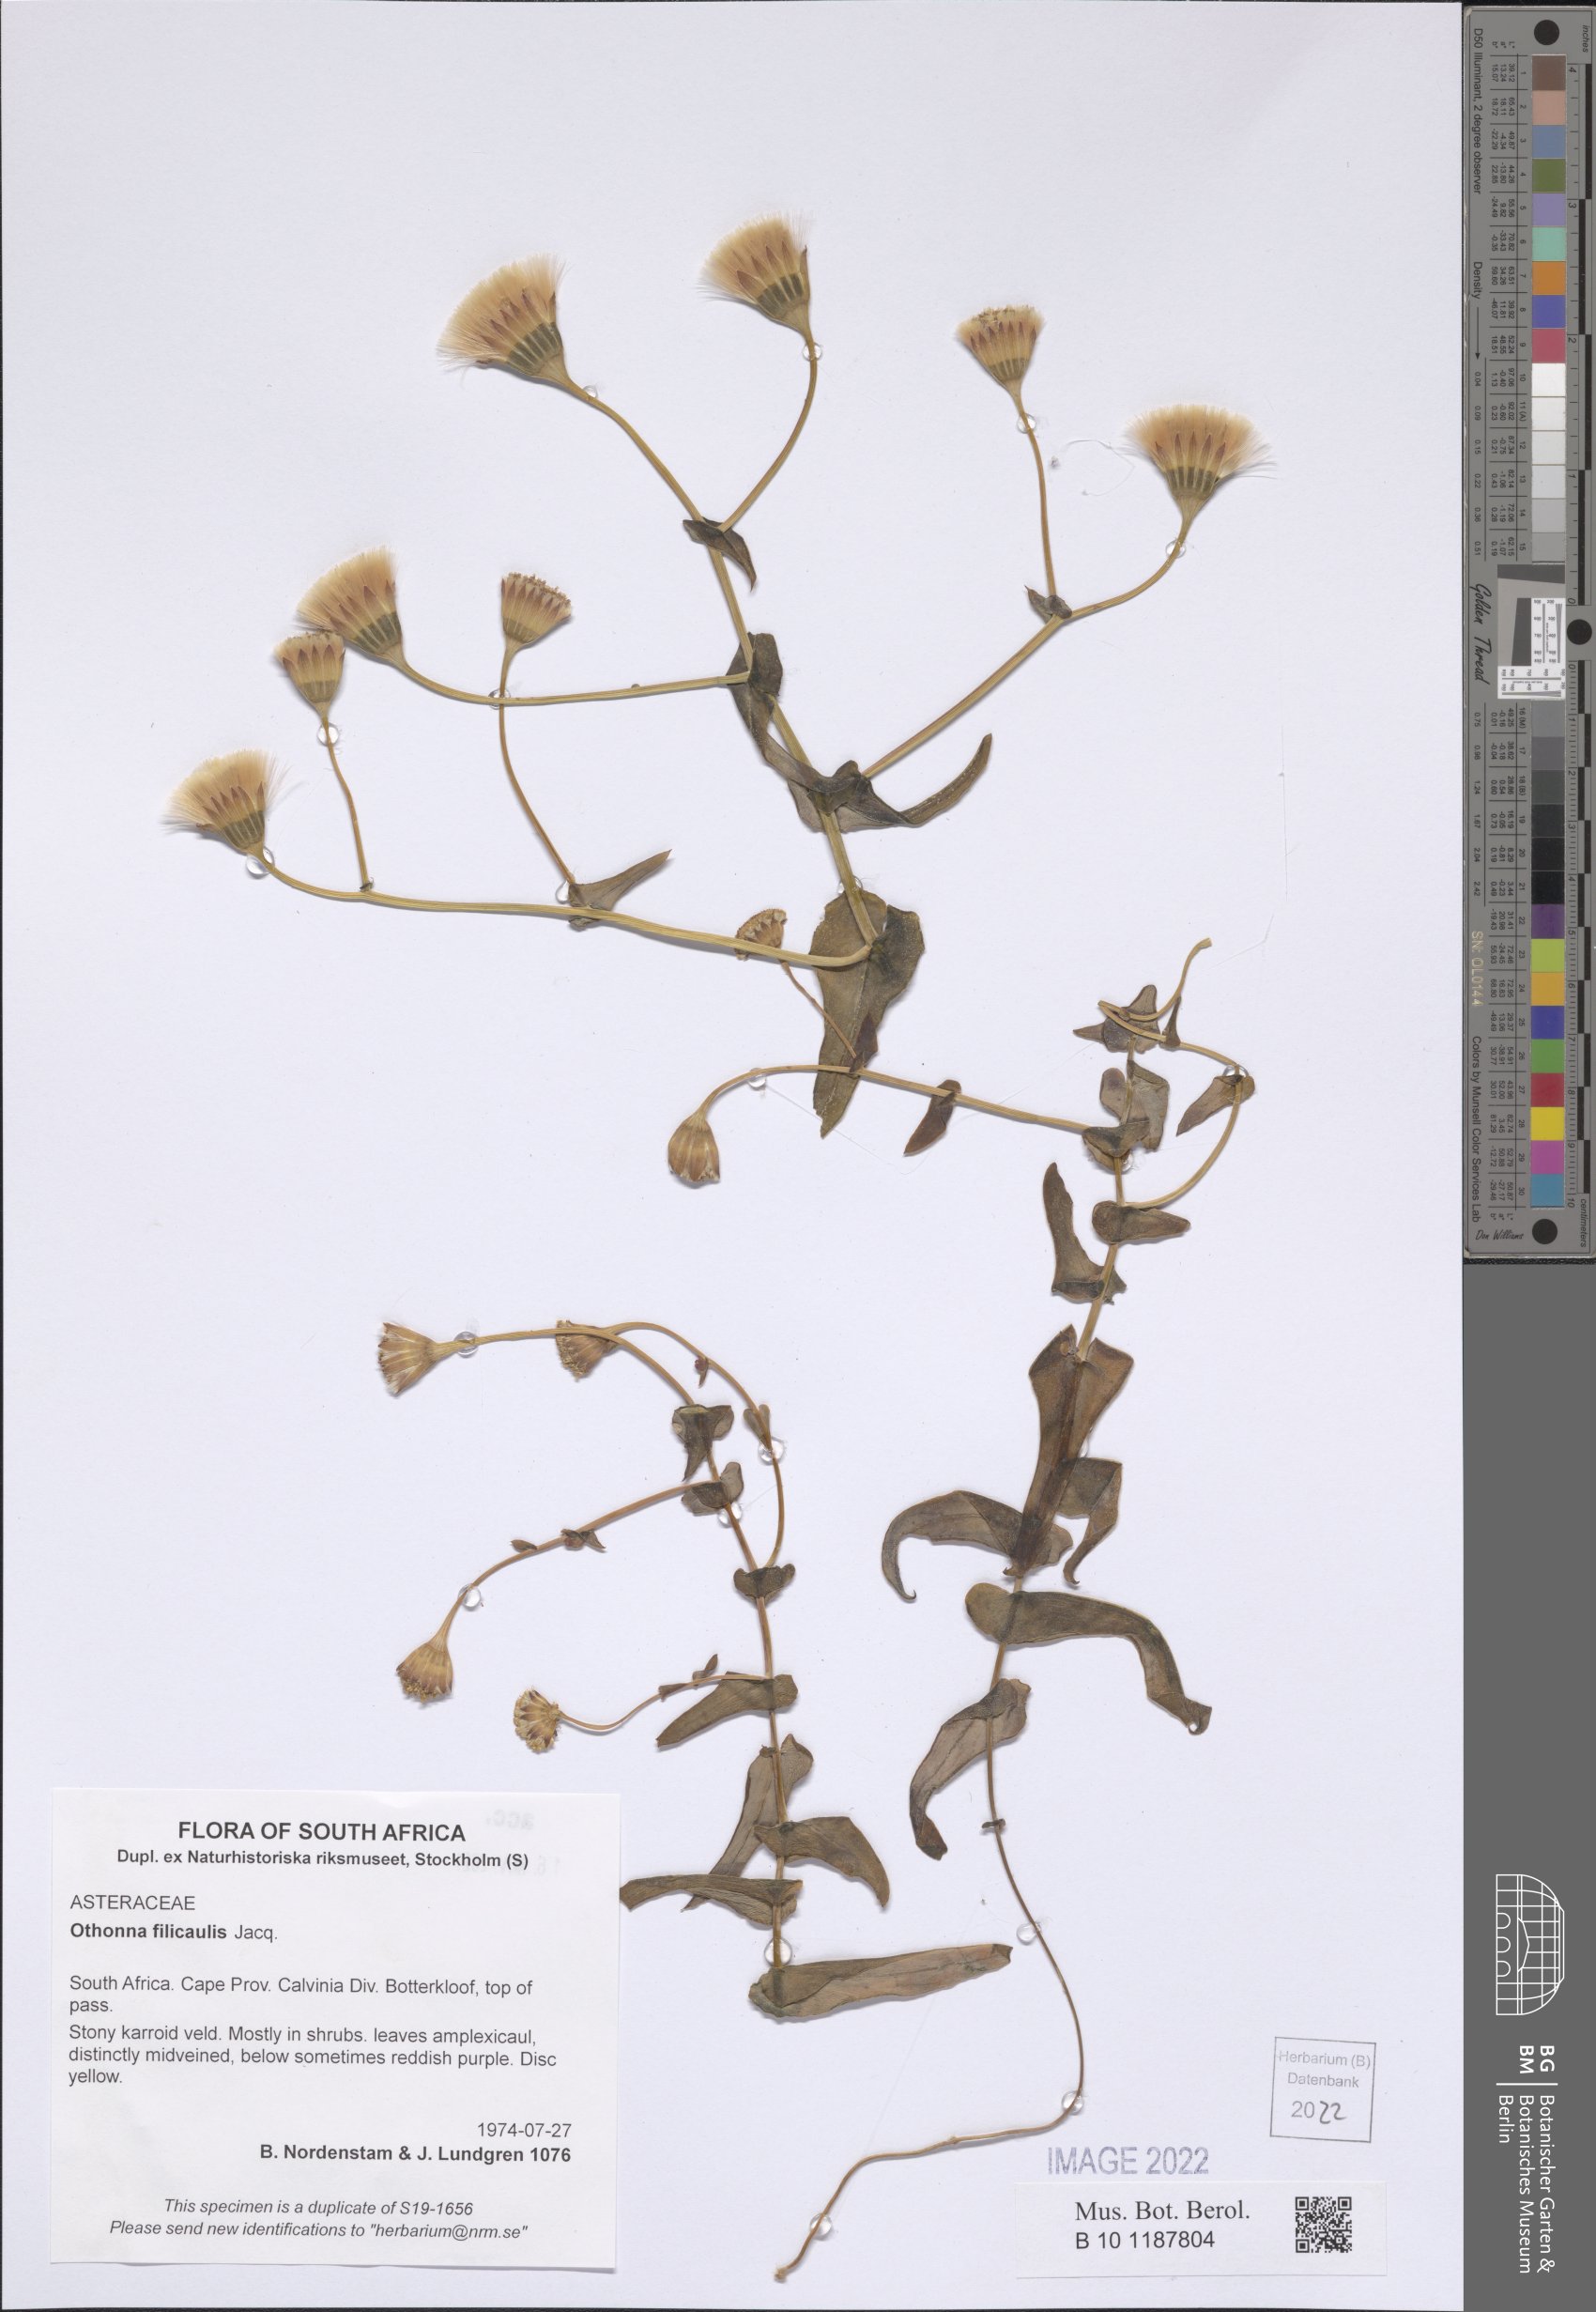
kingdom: Plantae
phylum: Tracheophyta
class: Magnoliopsida
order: Asterales
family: Asteraceae
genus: Othonna
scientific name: Othonna perfoliata
